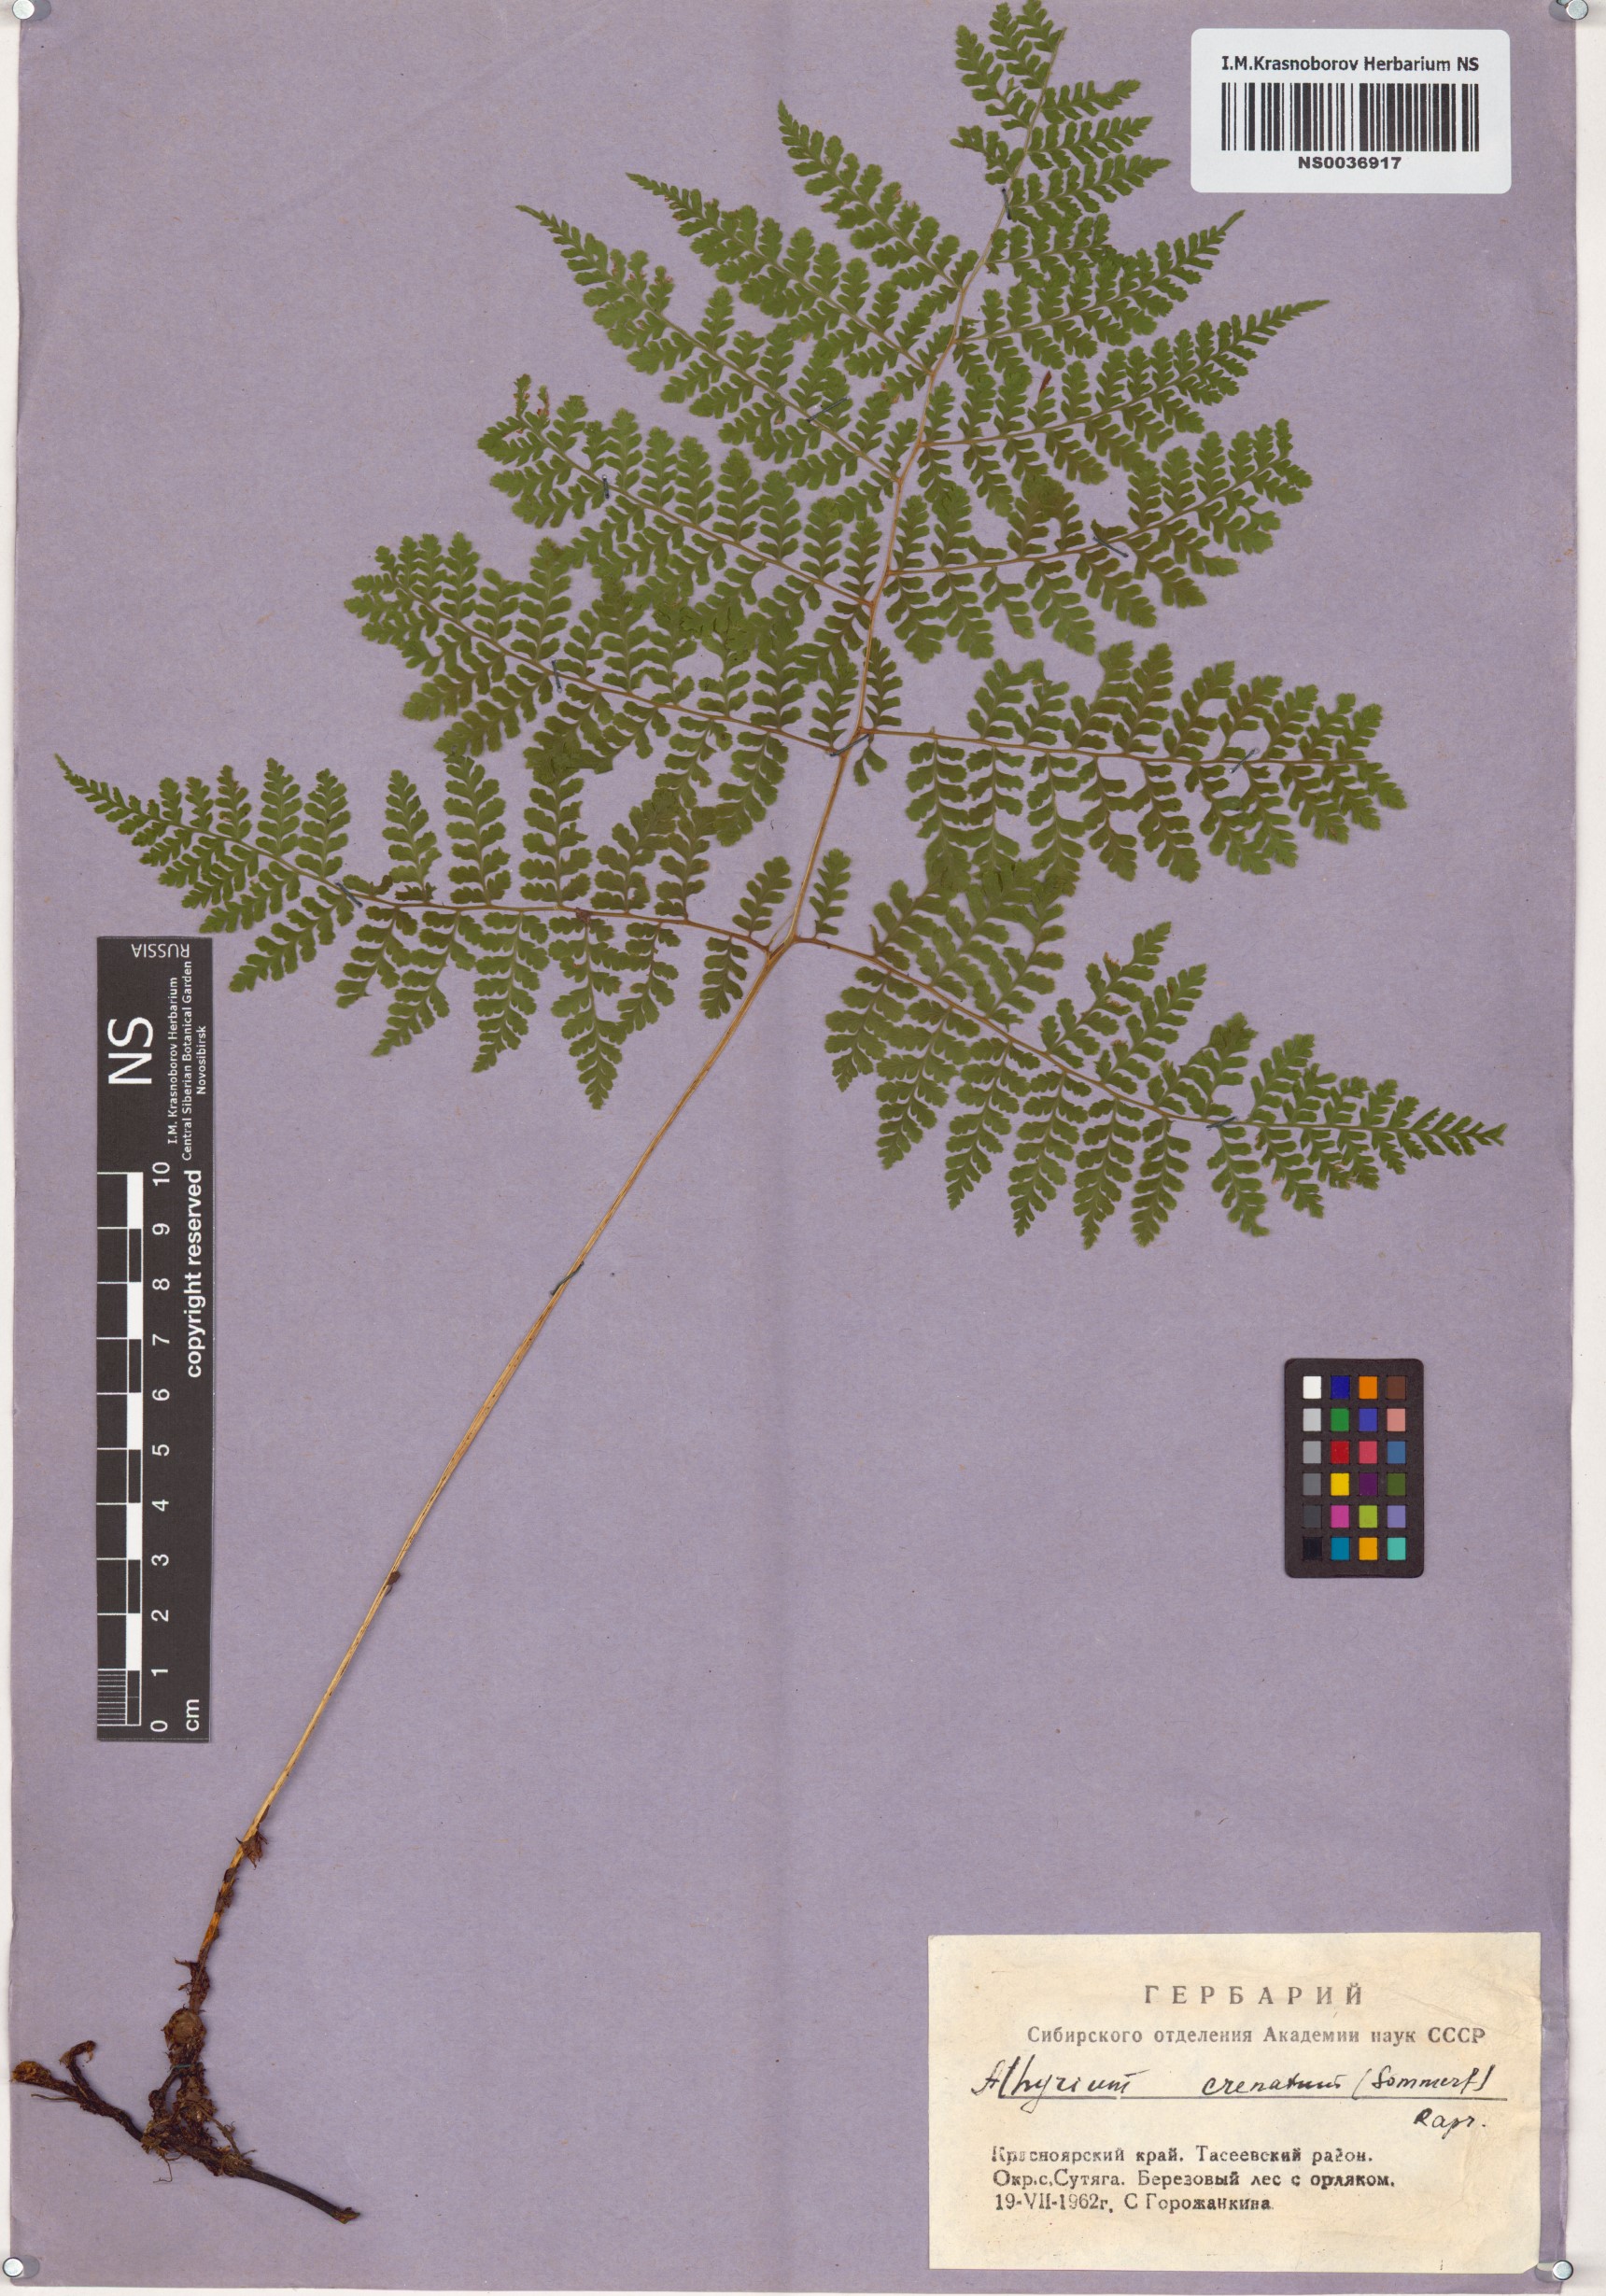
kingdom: Plantae
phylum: Tracheophyta
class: Polypodiopsida
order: Polypodiales
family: Athyriaceae
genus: Diplazium
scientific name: Diplazium sibiricum
